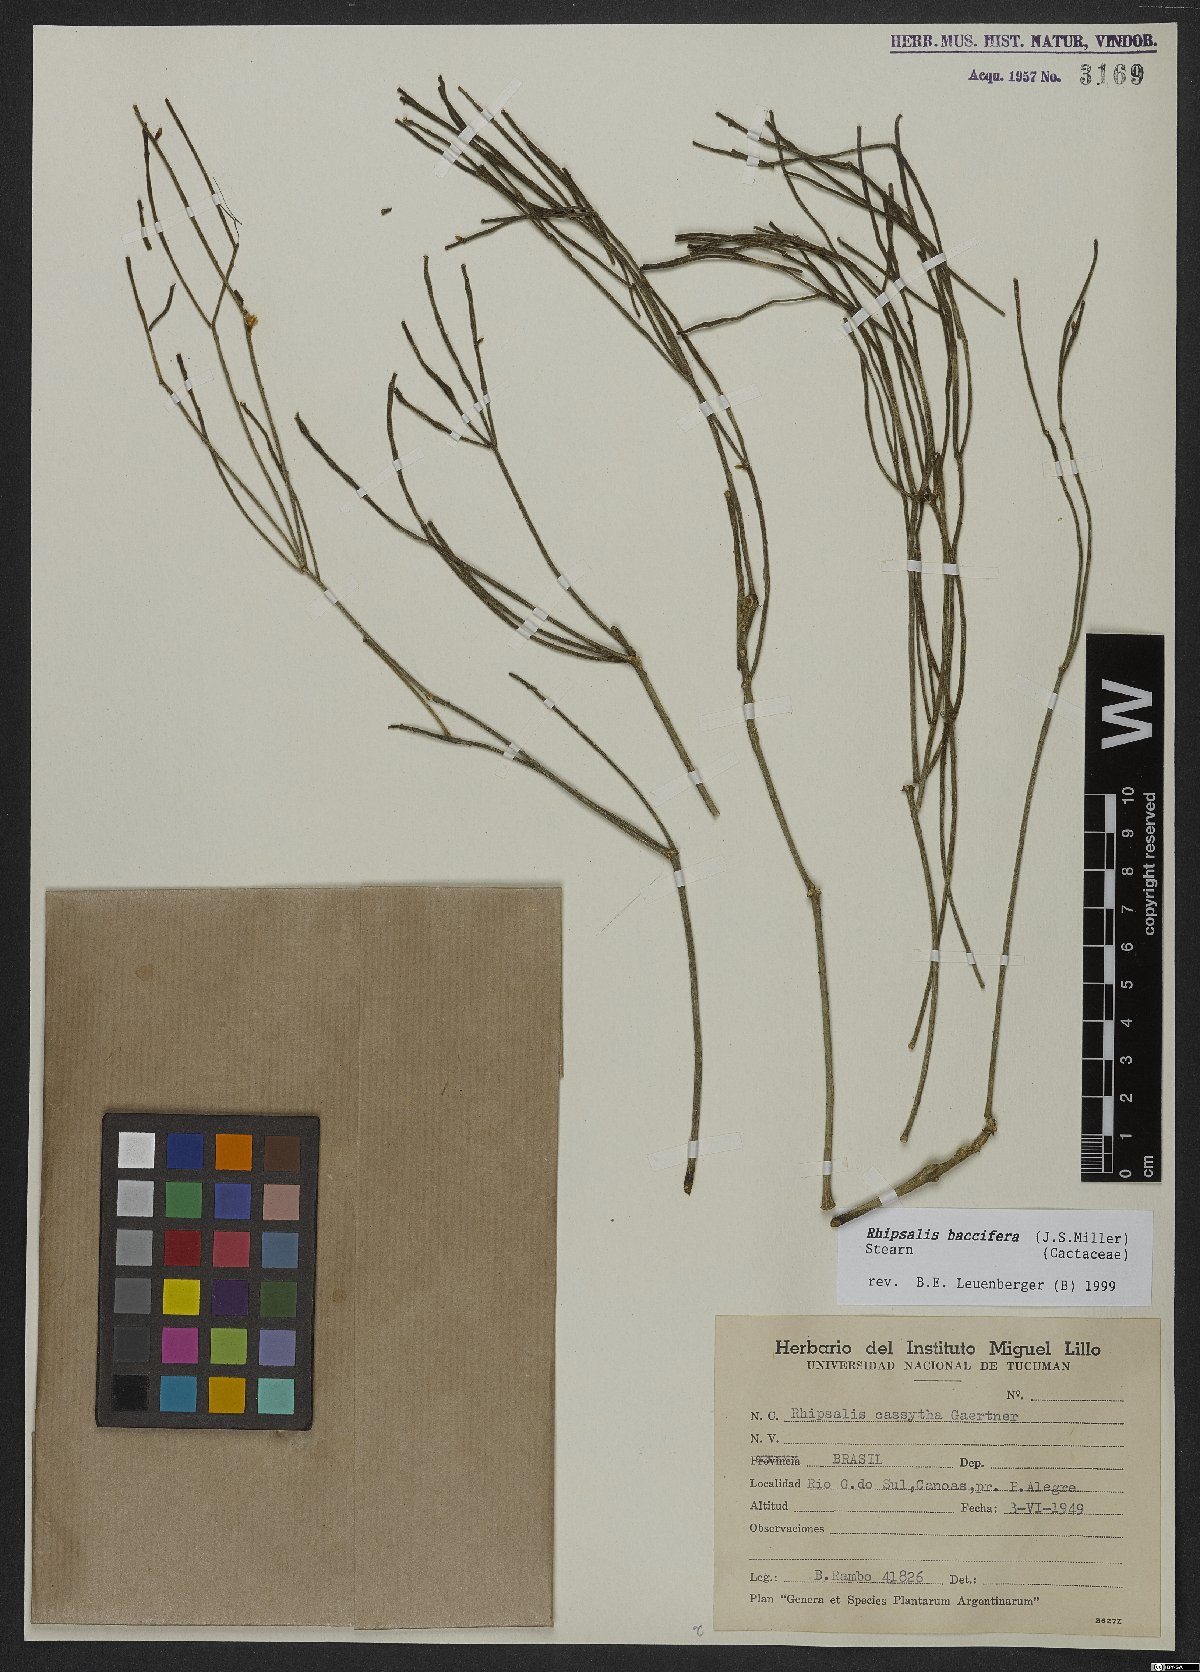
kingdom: Plantae
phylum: Tracheophyta
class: Magnoliopsida
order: Caryophyllales
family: Cactaceae
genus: Rhipsalis
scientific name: Rhipsalis baccifera
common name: Mistletoe cactus
